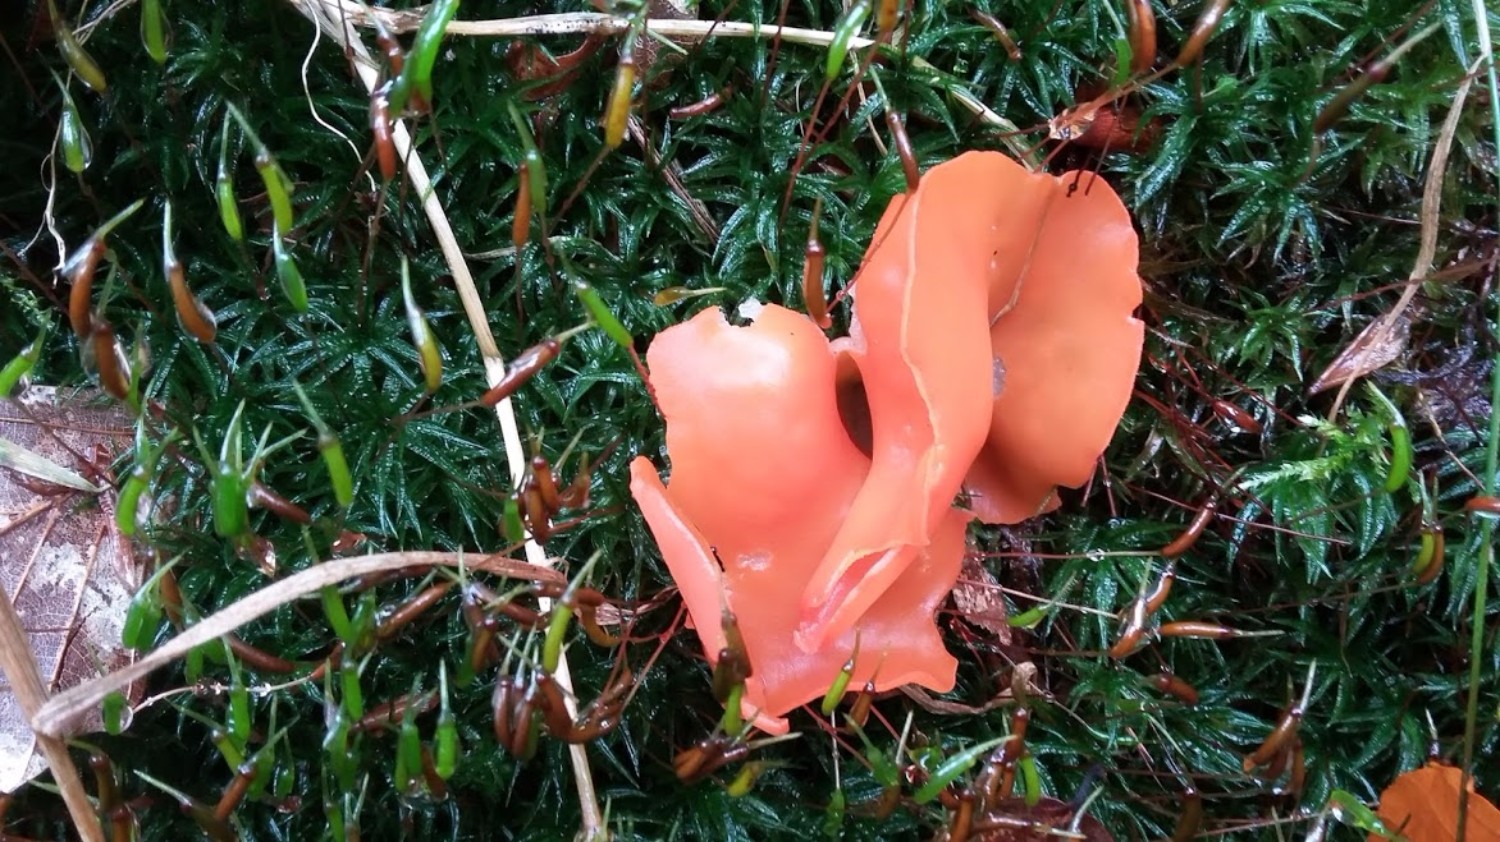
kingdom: Fungi
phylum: Ascomycota
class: Pezizomycetes
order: Pezizales
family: Pyronemataceae
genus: Aleuria
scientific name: Aleuria aurantia
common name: almindelig orangebæger
